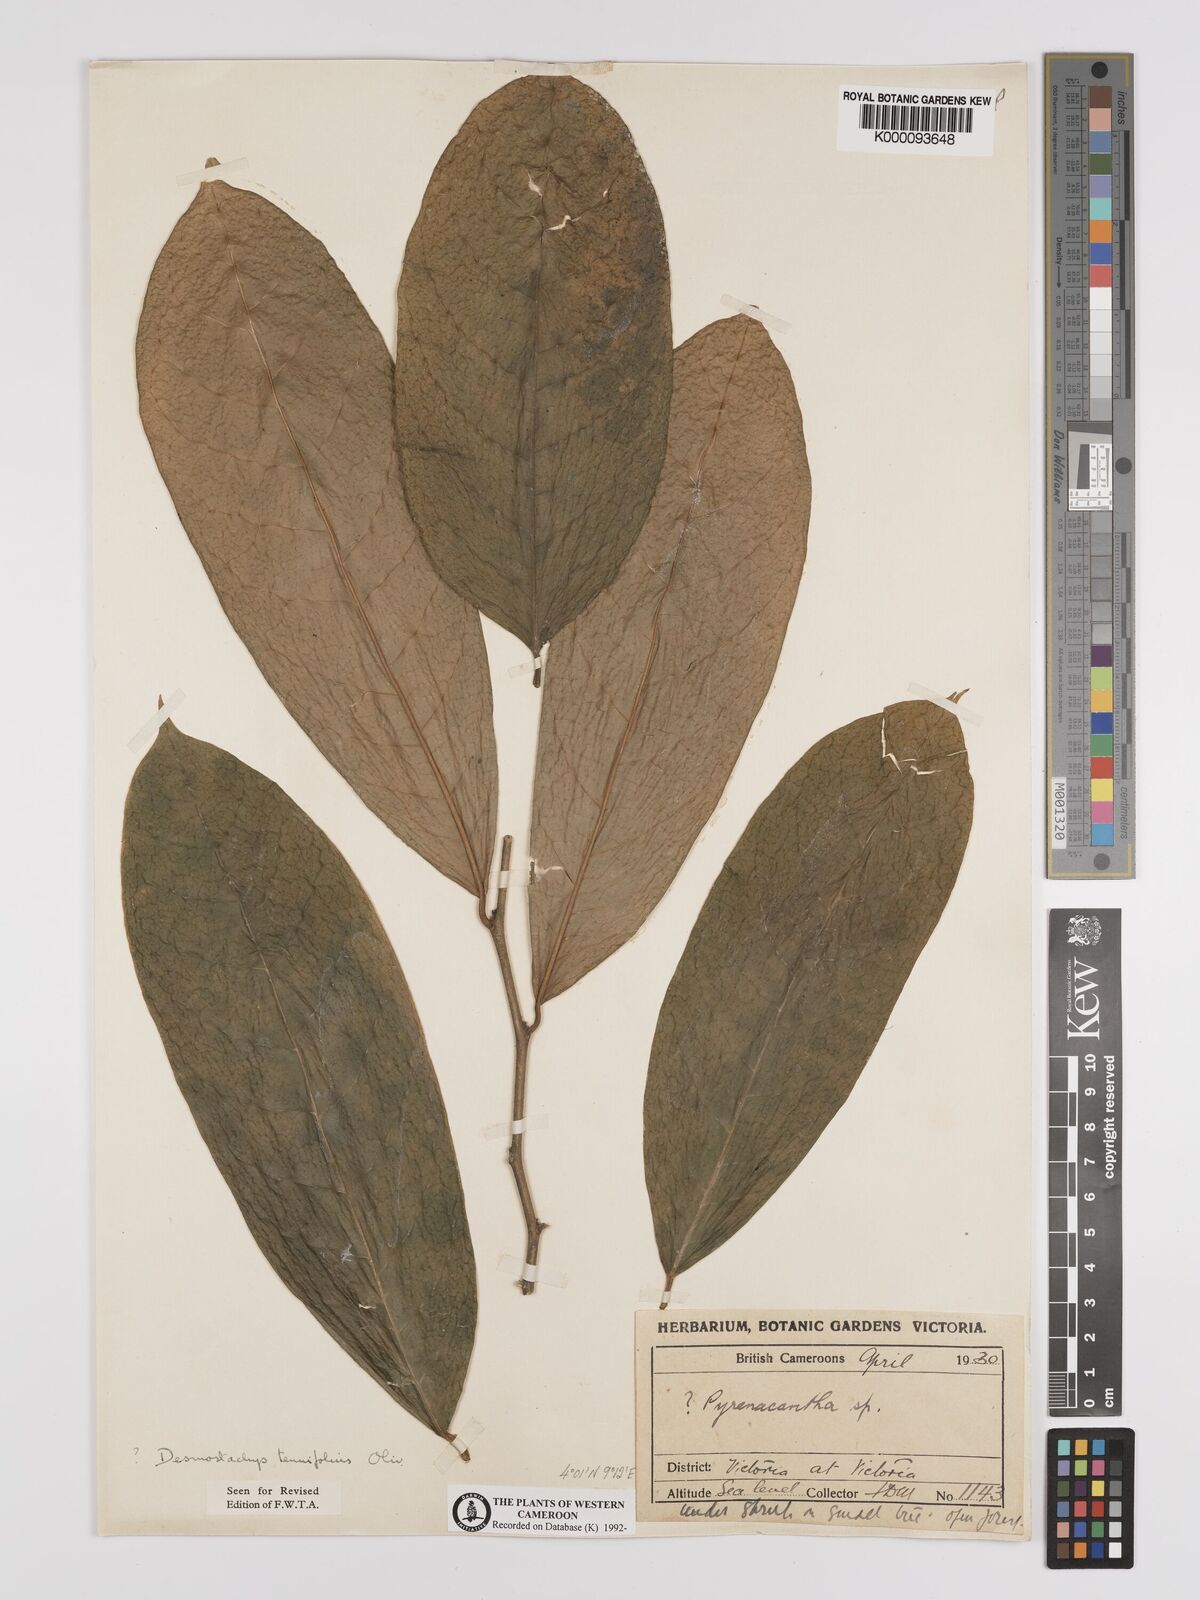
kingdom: Plantae
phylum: Tracheophyta
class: Magnoliopsida
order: Icacinales
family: Icacinaceae
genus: Vadensea
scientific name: Vadensea tenuifolia
